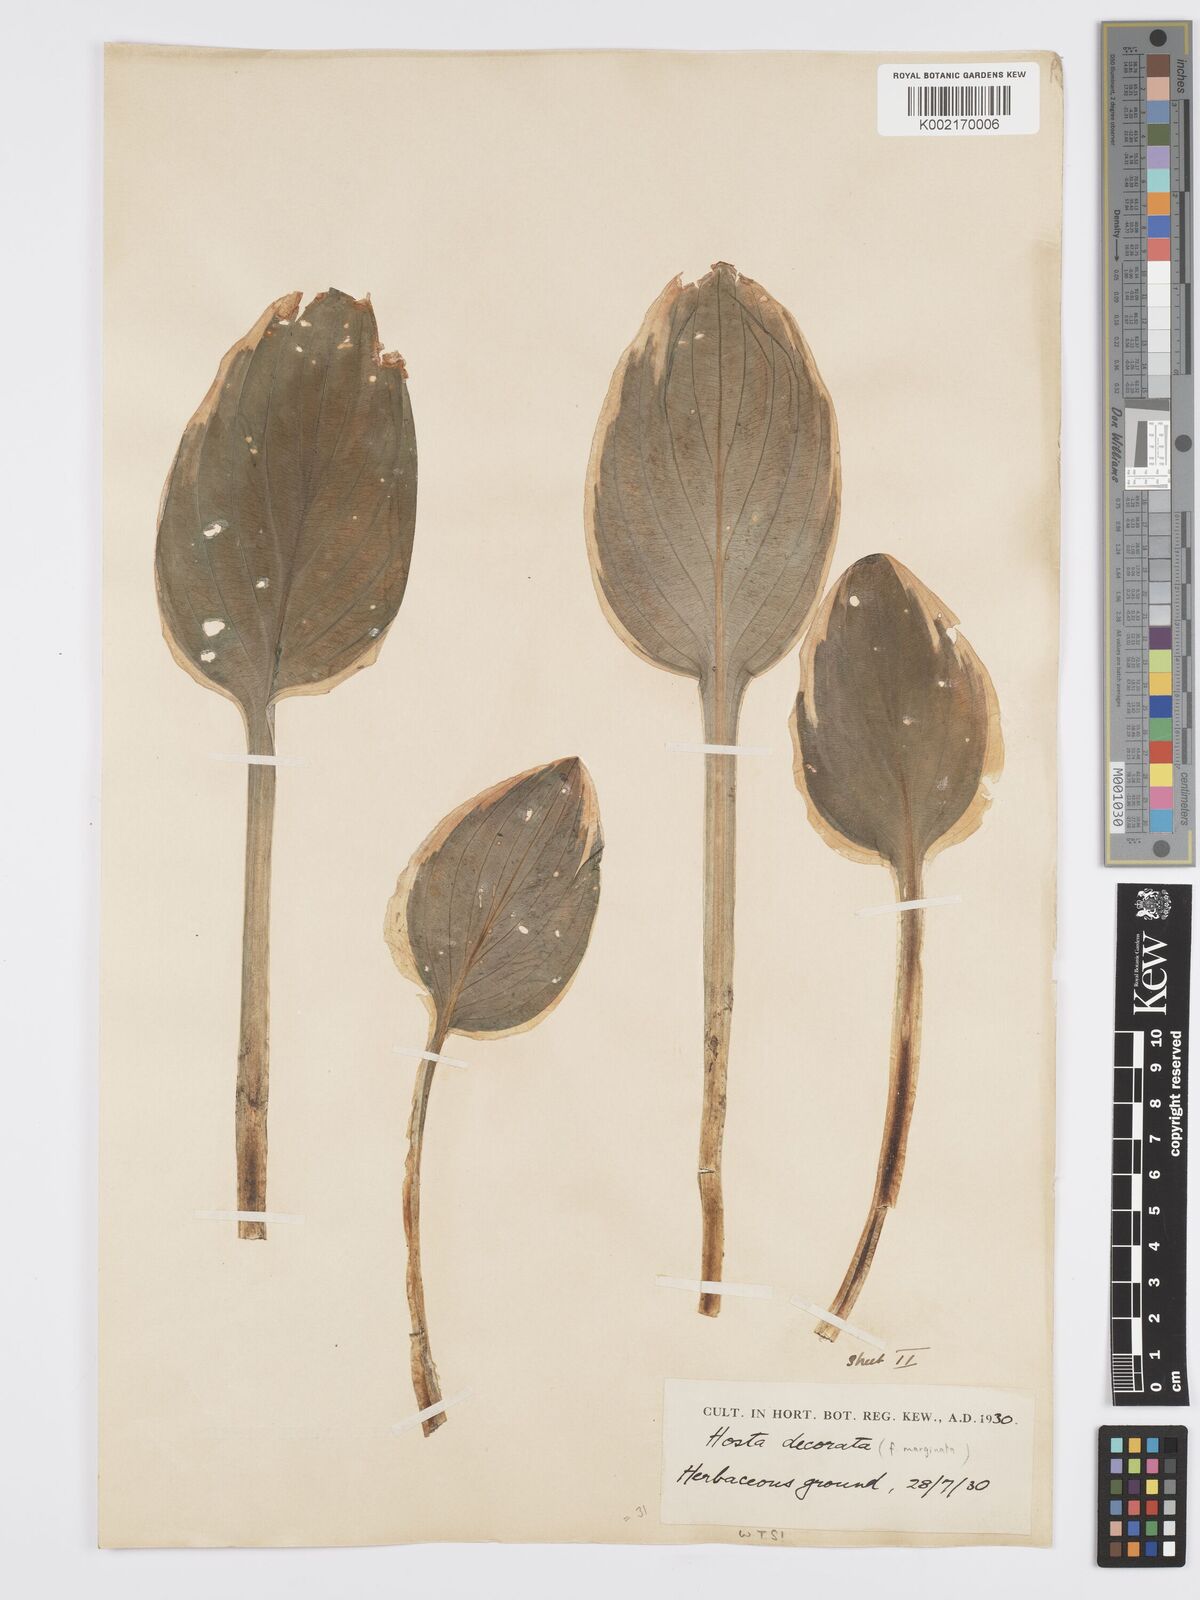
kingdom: Plantae
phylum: Tracheophyta
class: Liliopsida
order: Asparagales
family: Asparagaceae
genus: Hosta
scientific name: Hosta sieboldii
